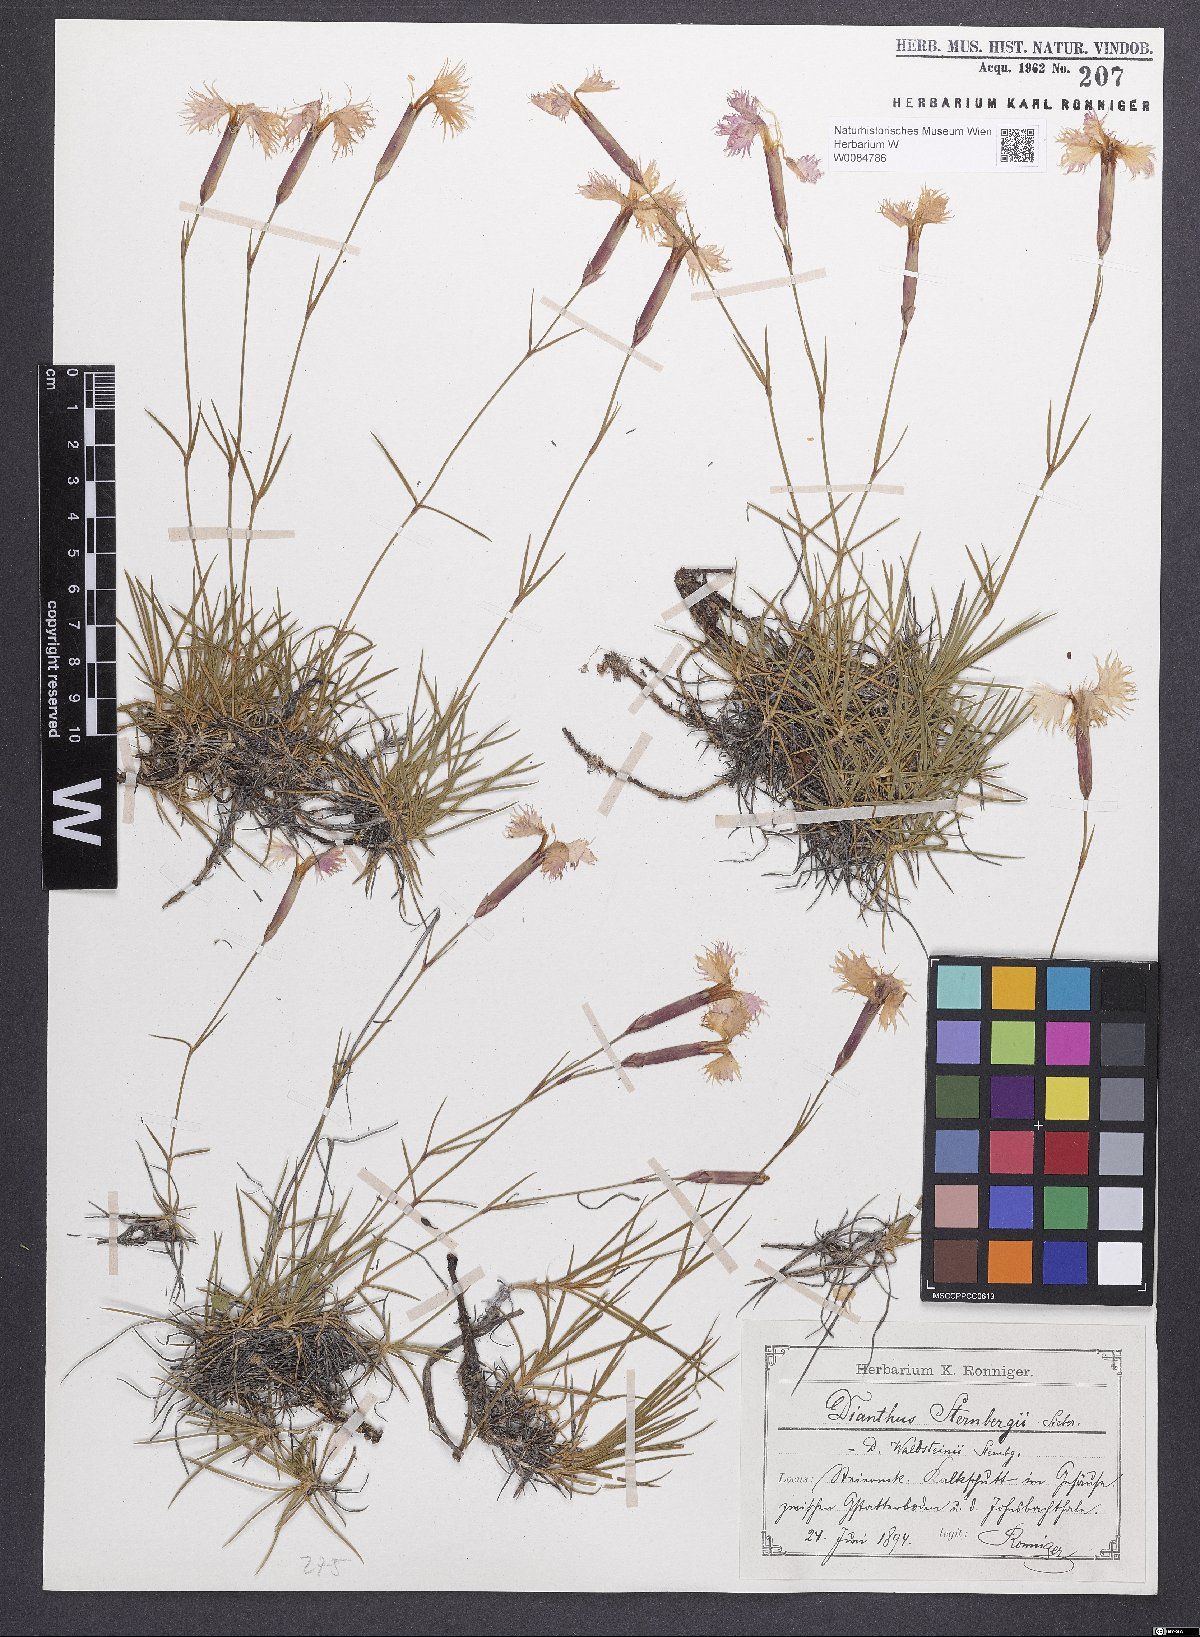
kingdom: Plantae
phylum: Tracheophyta
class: Magnoliopsida
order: Caryophyllales
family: Caryophyllaceae
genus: Dianthus
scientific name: Dianthus monspessulanus
